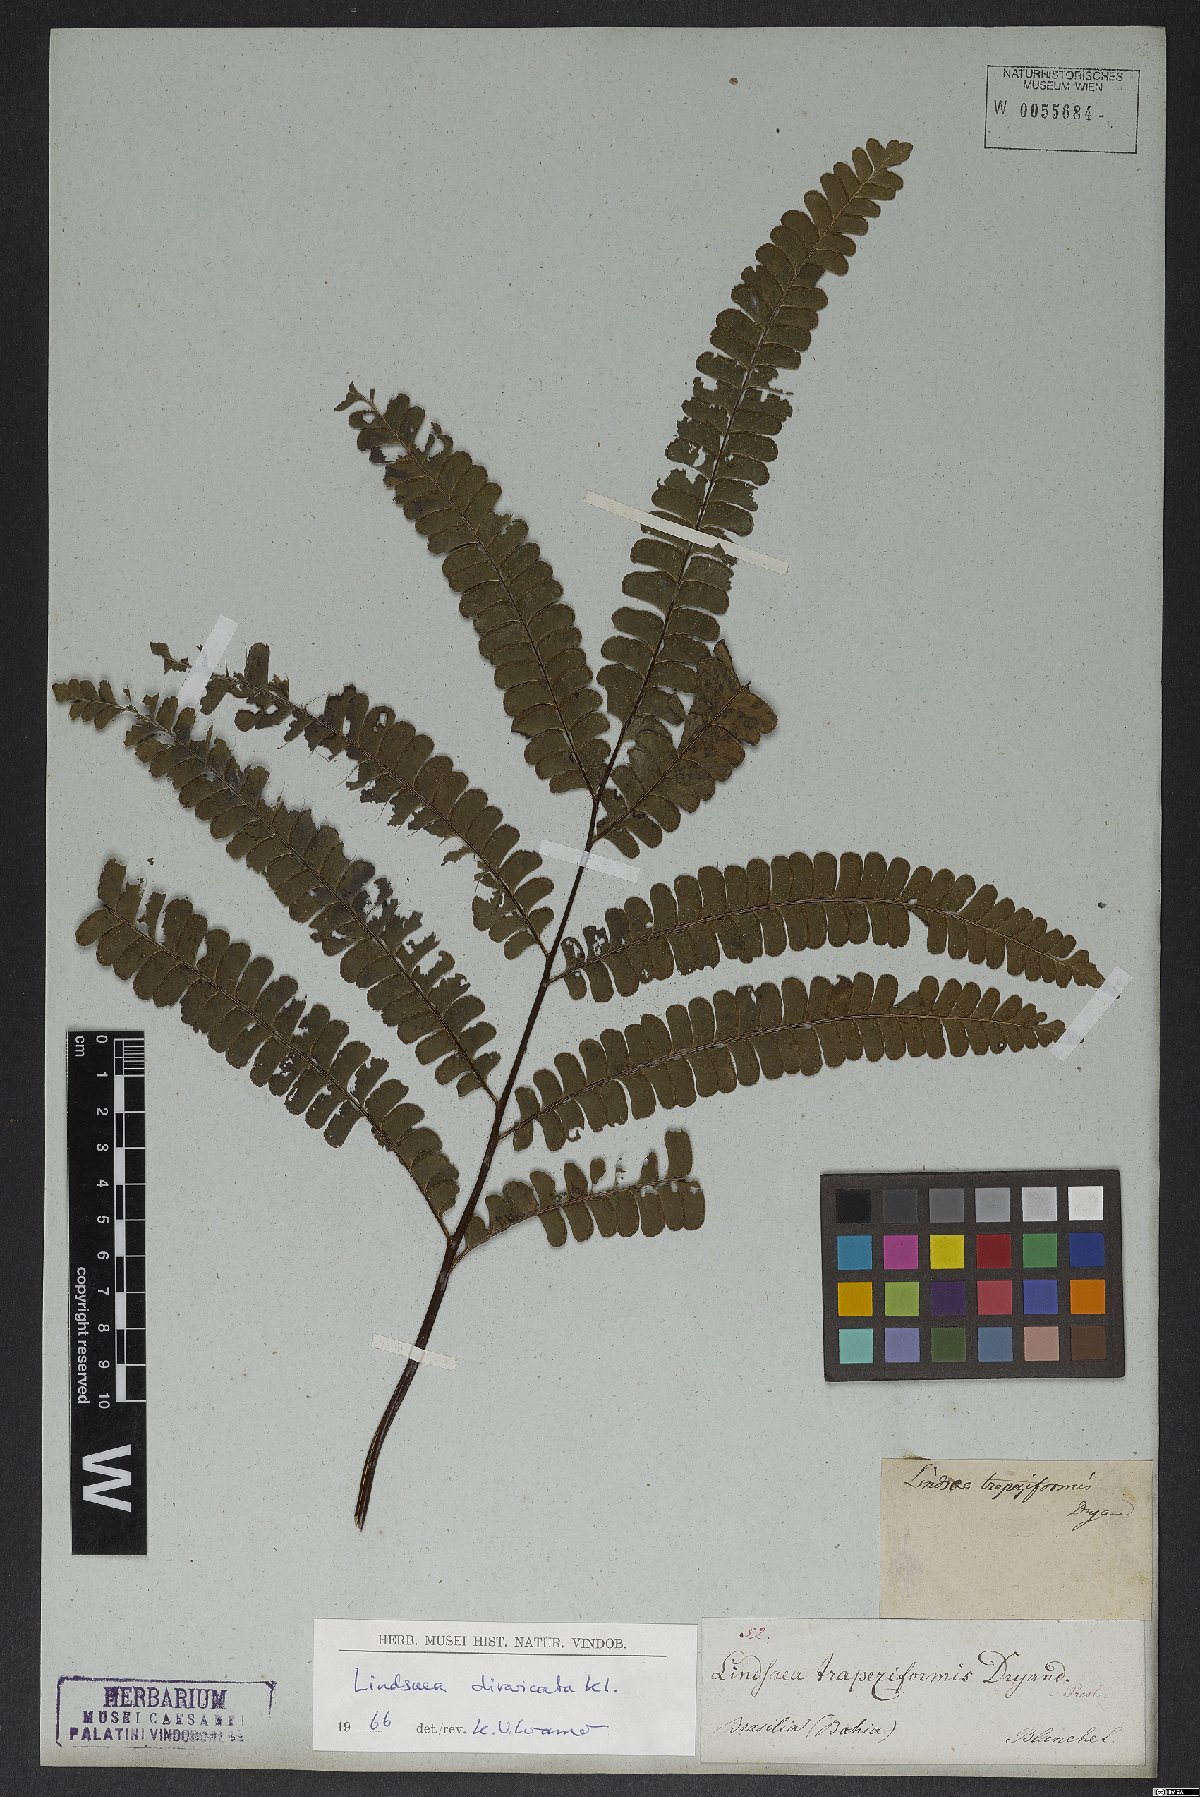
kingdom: Plantae
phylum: Tracheophyta
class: Polypodiopsida
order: Polypodiales
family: Lindsaeaceae
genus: Lindsaea
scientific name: Lindsaea divaricata
